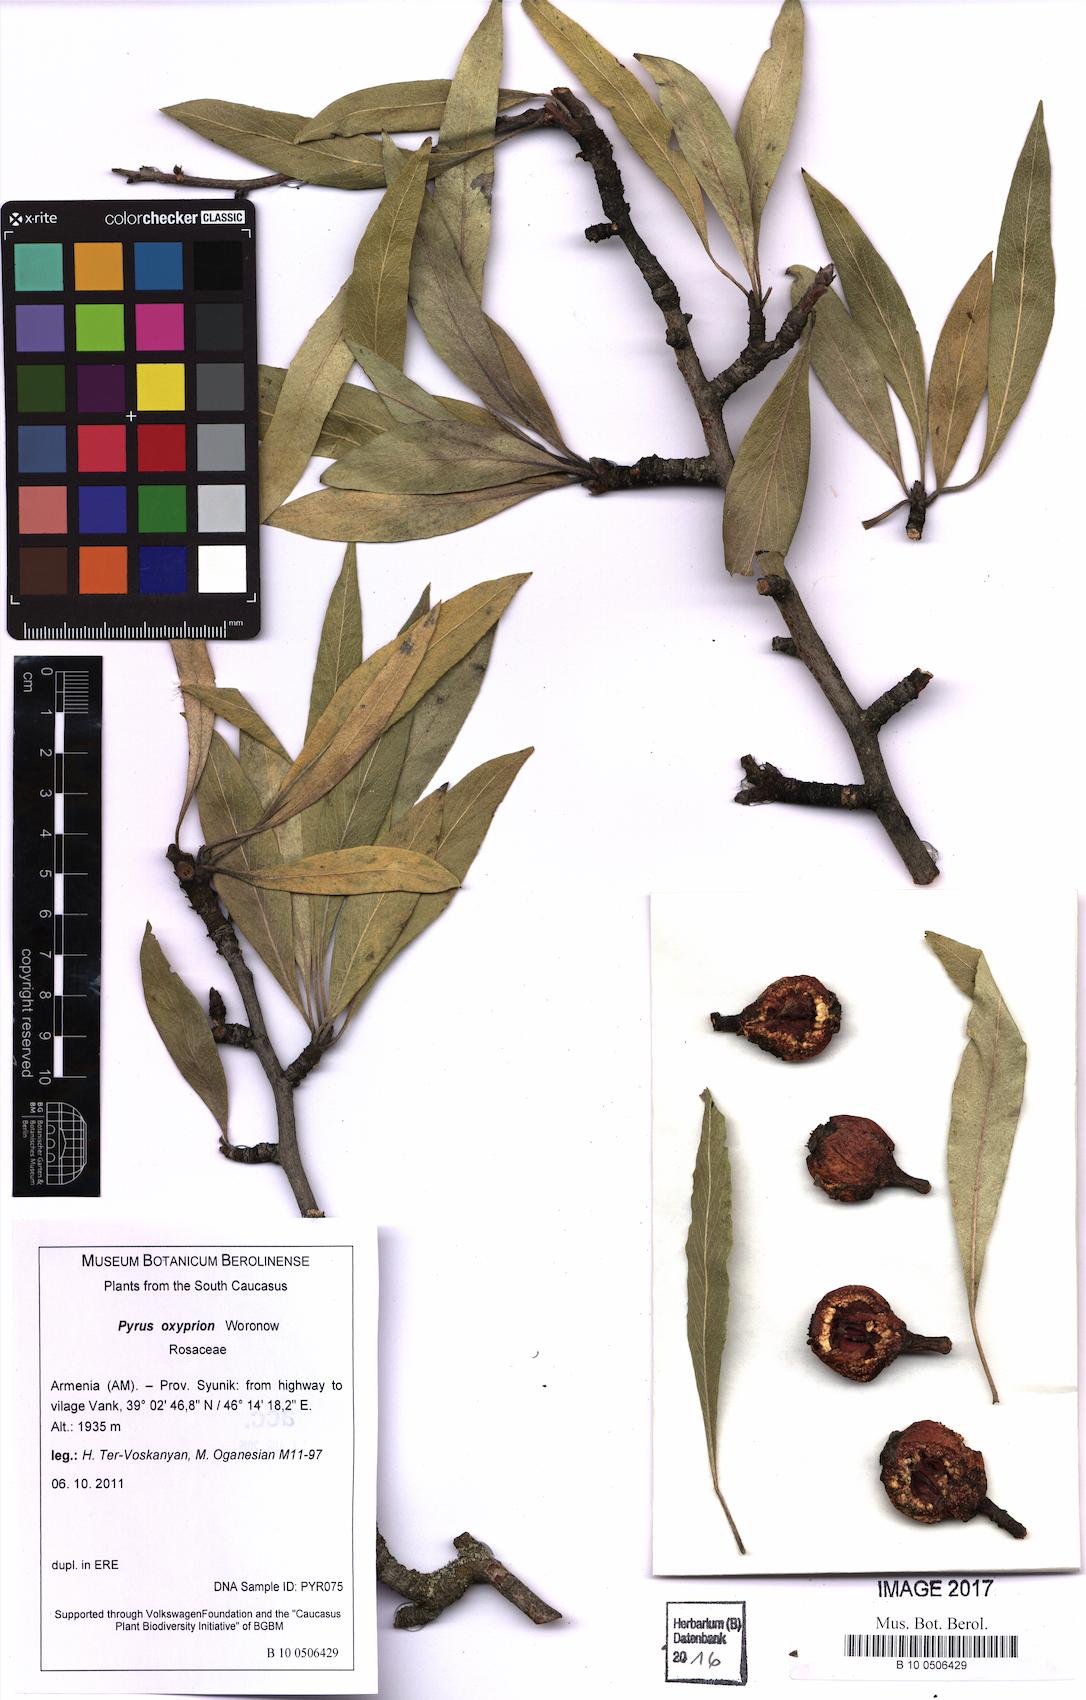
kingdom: Plantae
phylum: Tracheophyta
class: Magnoliopsida
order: Rosales
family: Rosaceae
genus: Pyrus
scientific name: Pyrus oxyprion
